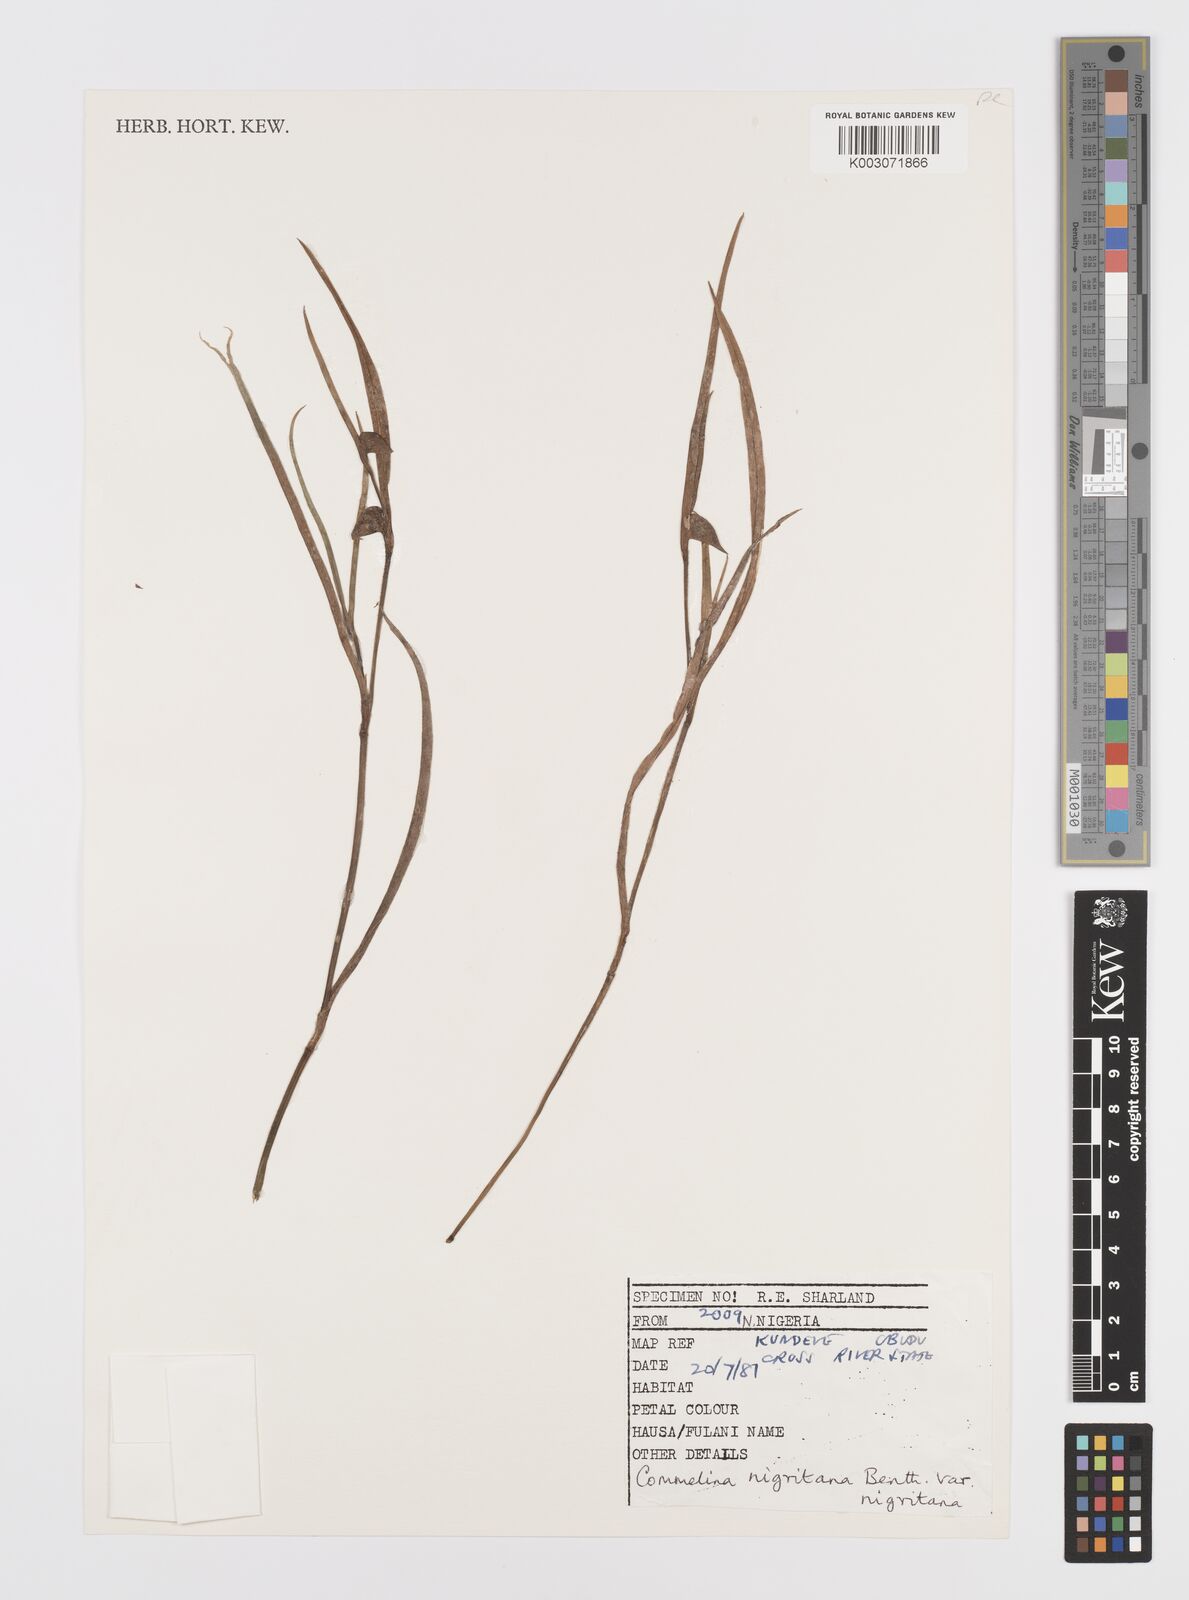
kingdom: Plantae
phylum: Tracheophyta
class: Liliopsida
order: Commelinales
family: Commelinaceae
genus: Commelina
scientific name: Commelina
